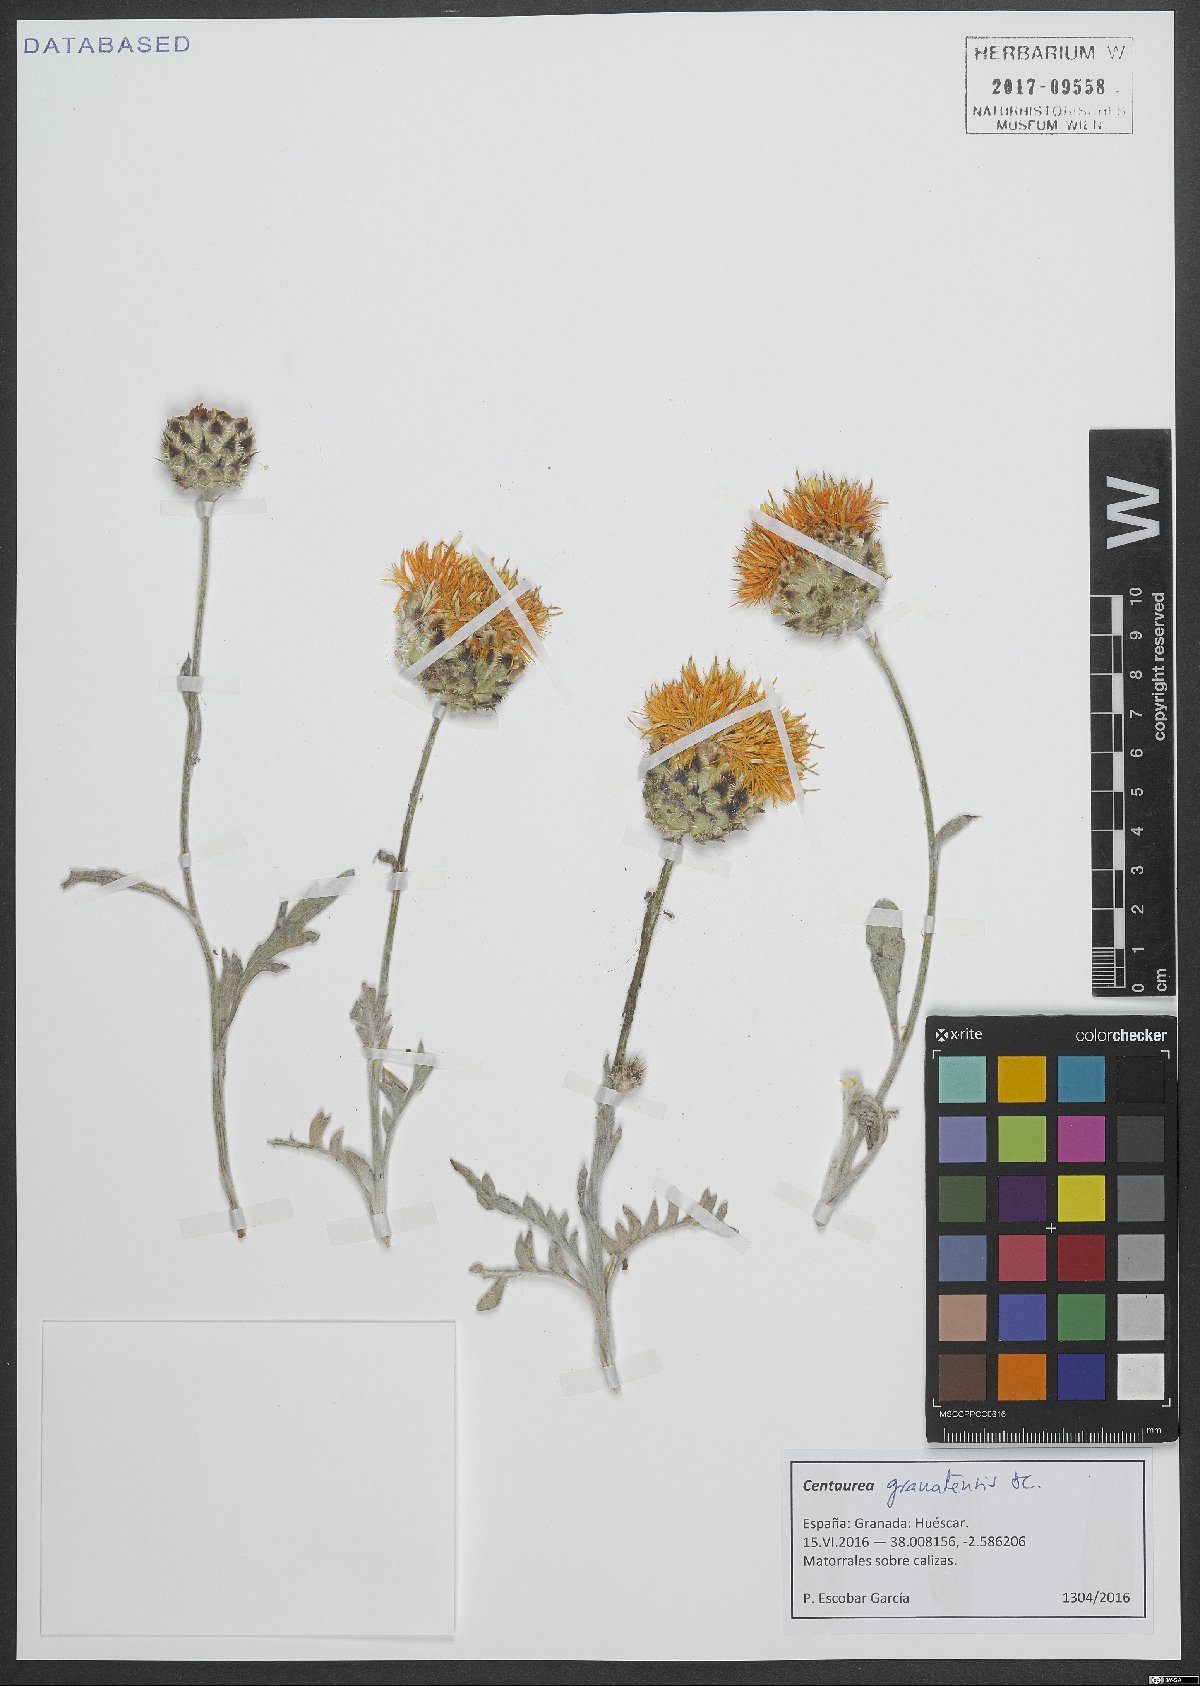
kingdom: Plantae
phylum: Tracheophyta
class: Magnoliopsida
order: Asterales
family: Asteraceae
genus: Centaurea
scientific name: Centaurea granatensis
